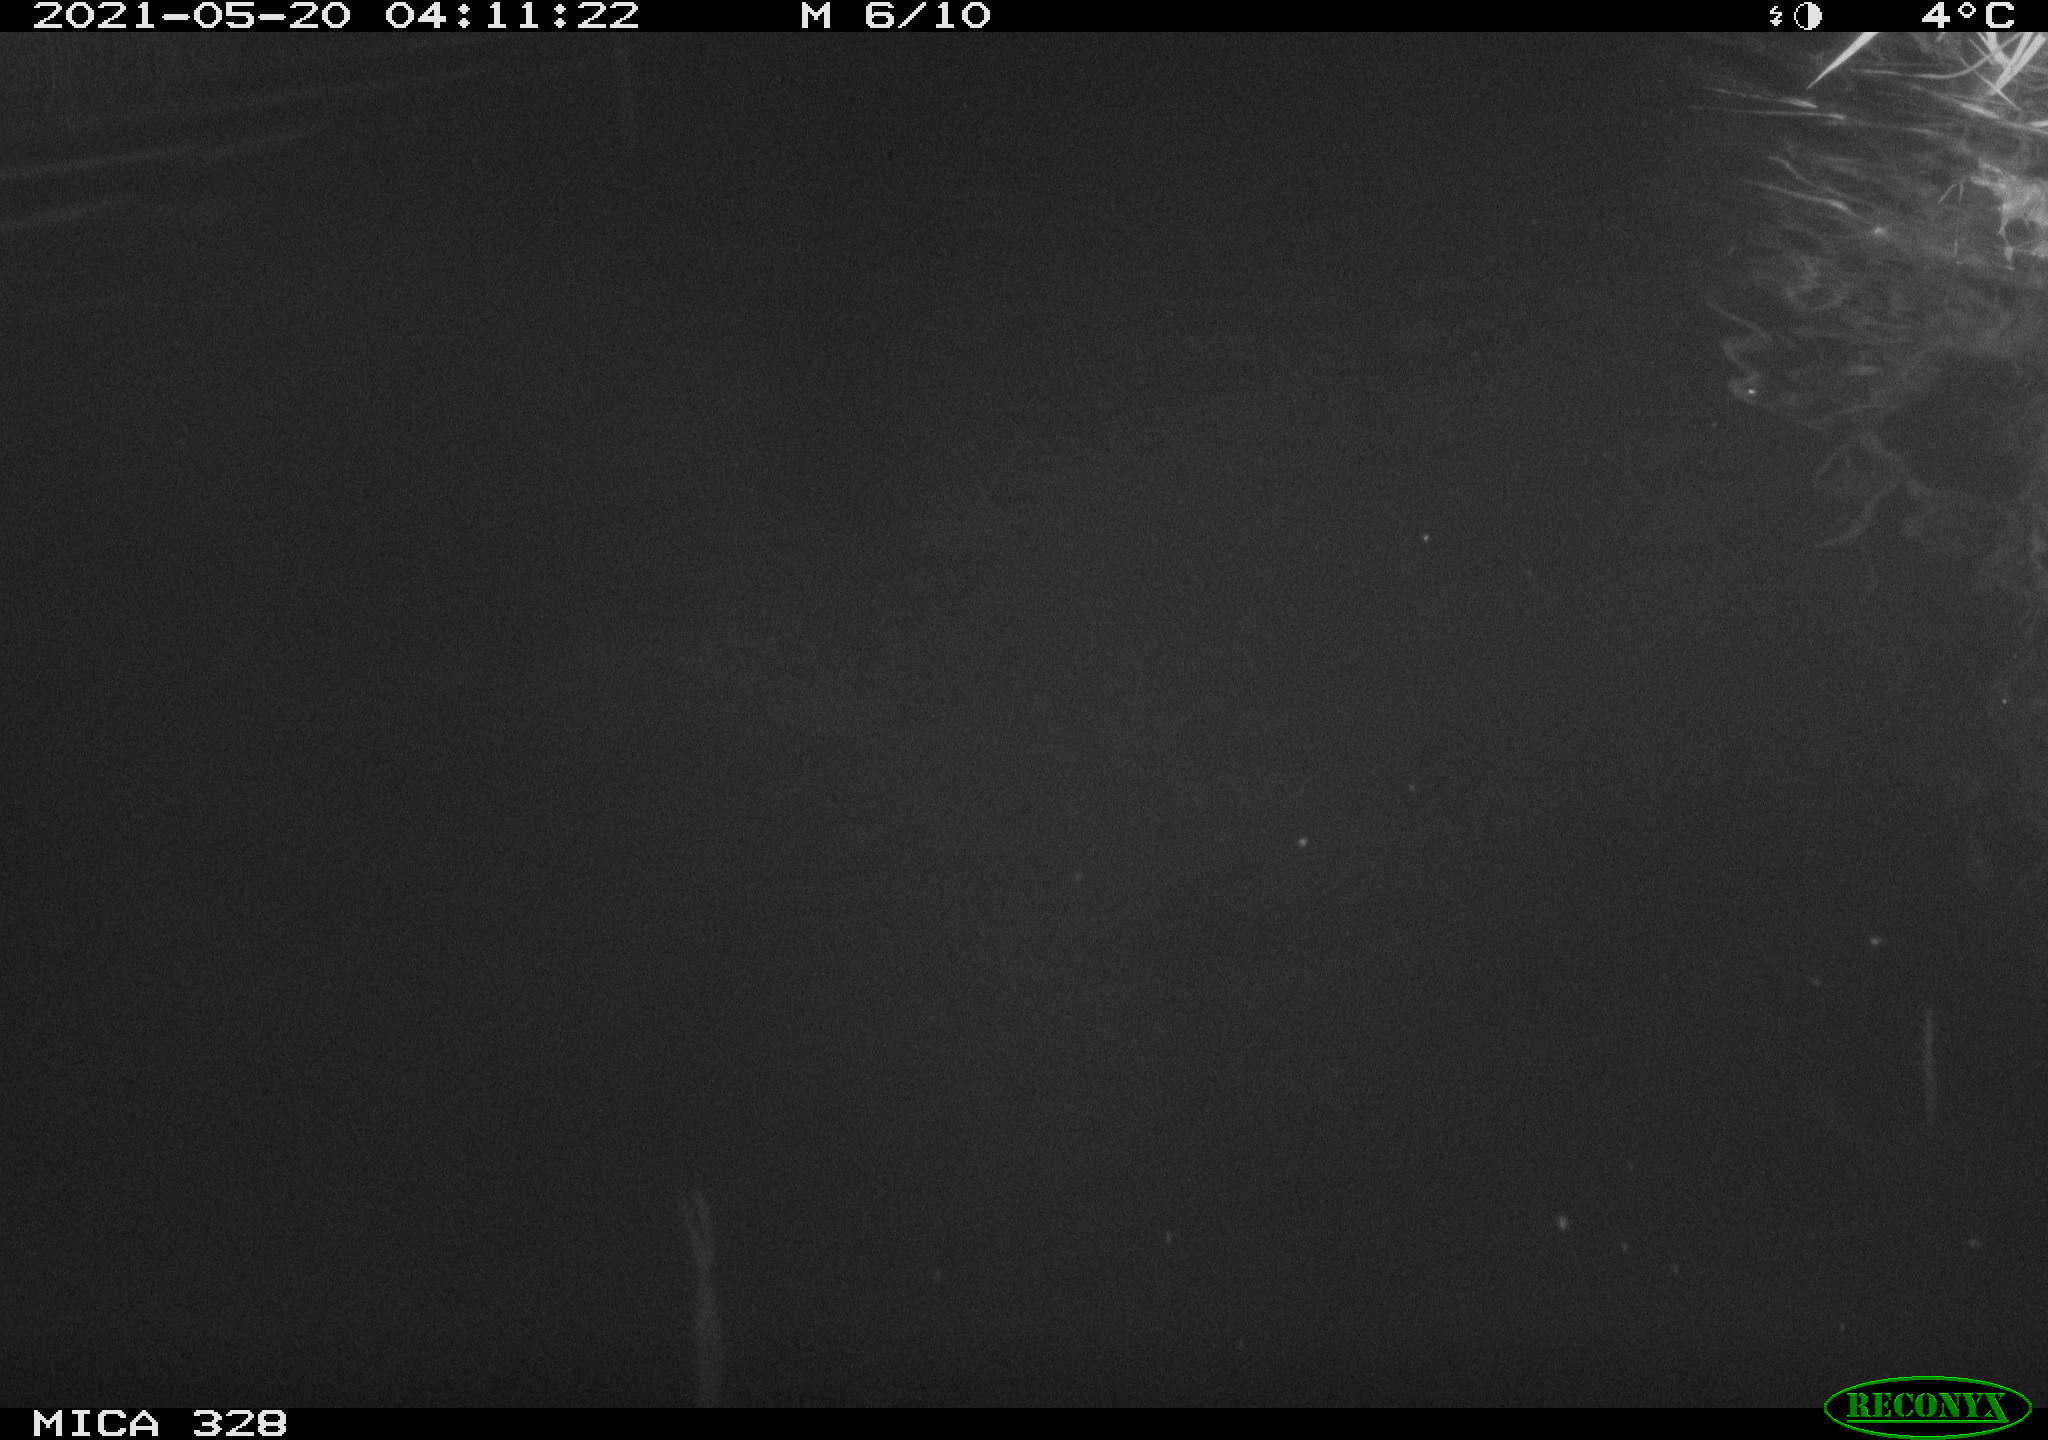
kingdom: Animalia
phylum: Chordata
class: Mammalia
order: Rodentia
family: Cricetidae
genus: Ondatra
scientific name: Ondatra zibethicus
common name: Muskrat
